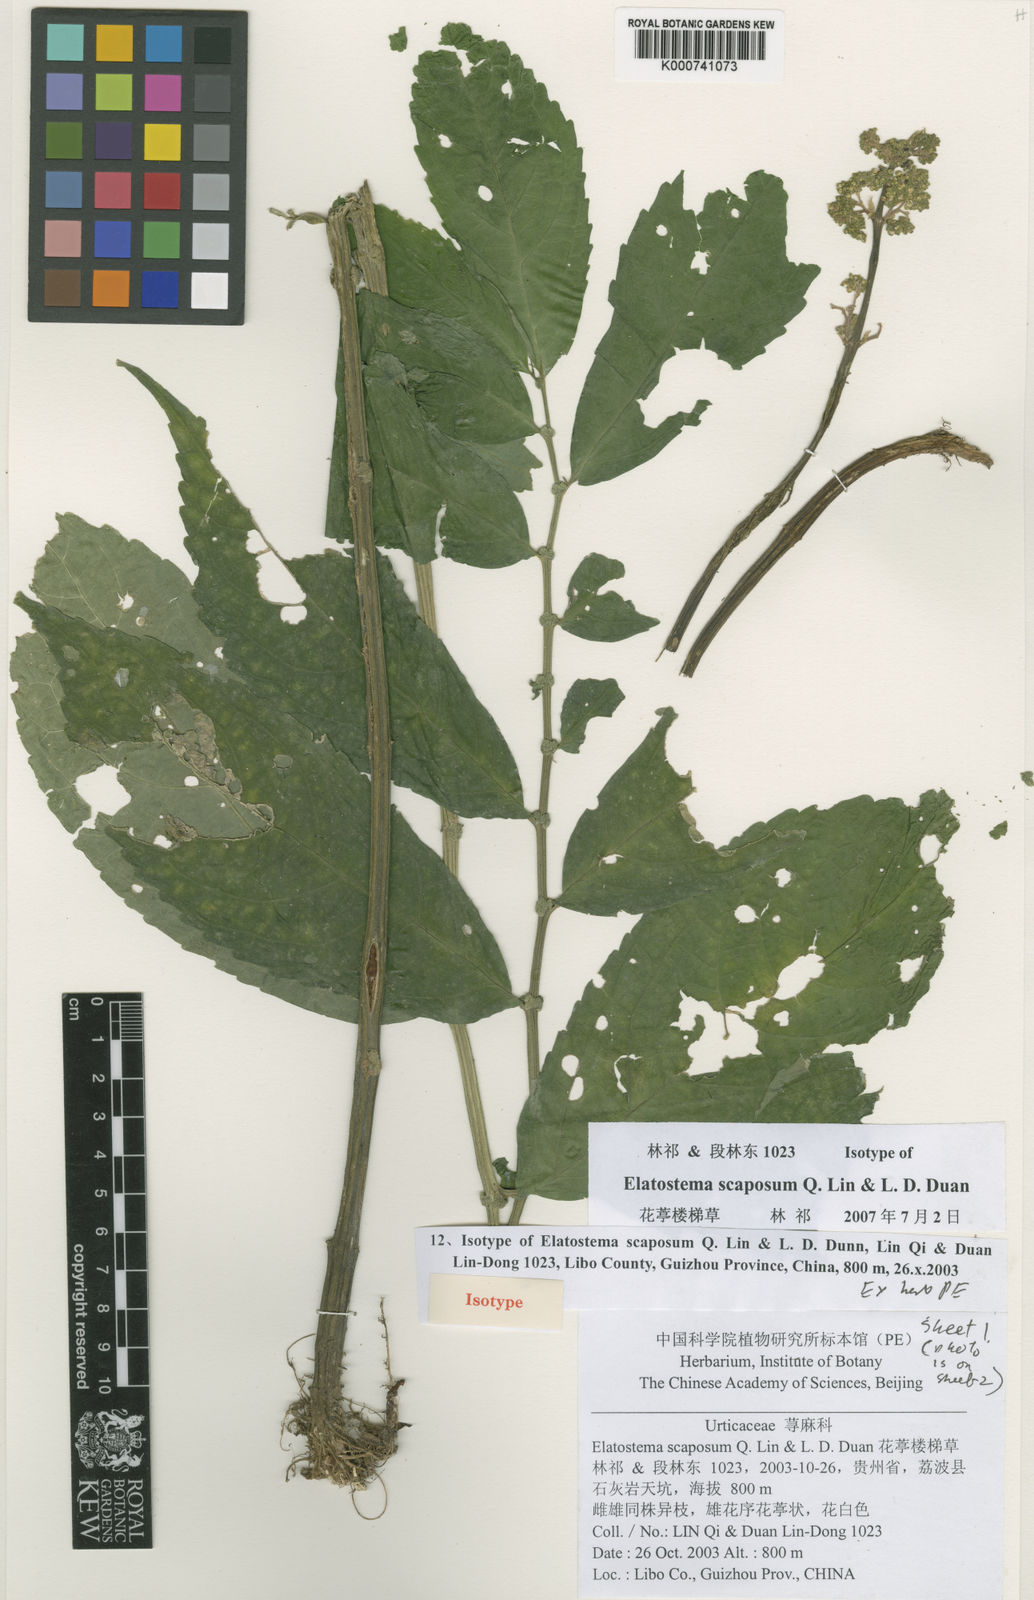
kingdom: Plantae
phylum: Tracheophyta
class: Magnoliopsida
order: Rosales
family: Urticaceae
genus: Elatostema
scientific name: Elatostema scaposum
